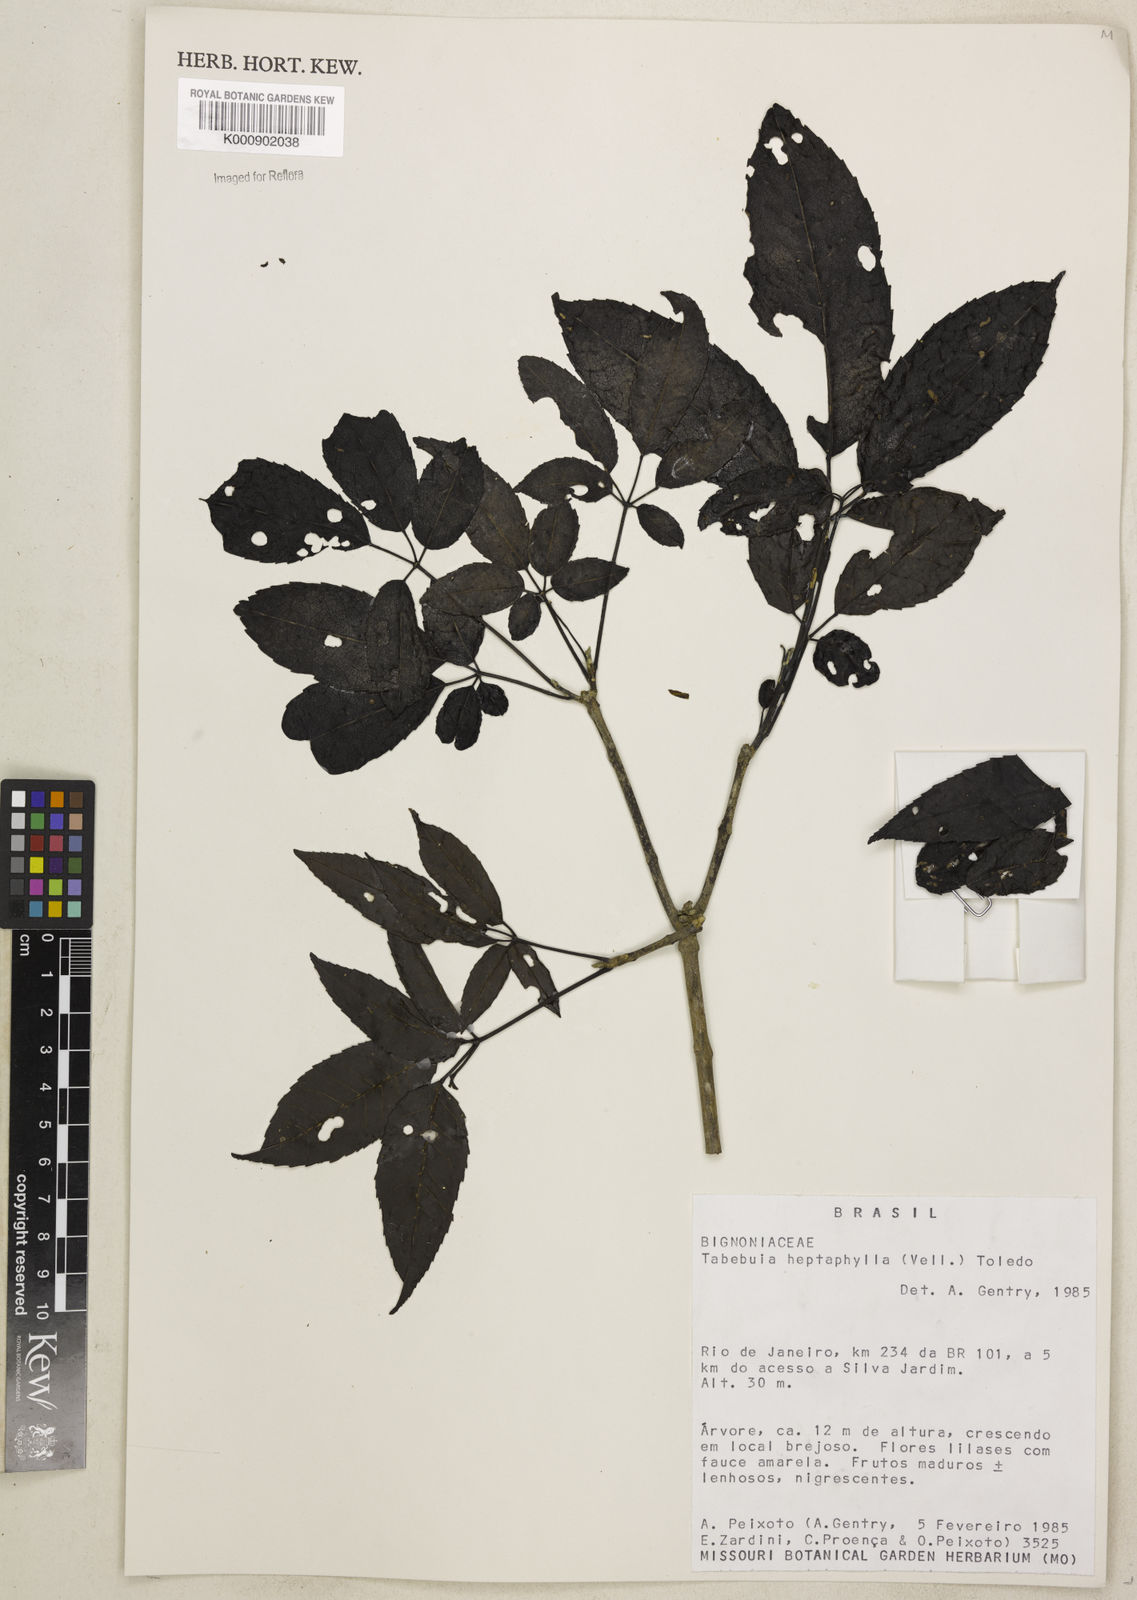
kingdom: Plantae
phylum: Tracheophyta
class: Magnoliopsida
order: Lamiales
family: Bignoniaceae
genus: Handroanthus
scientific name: Handroanthus heptaphyllus
